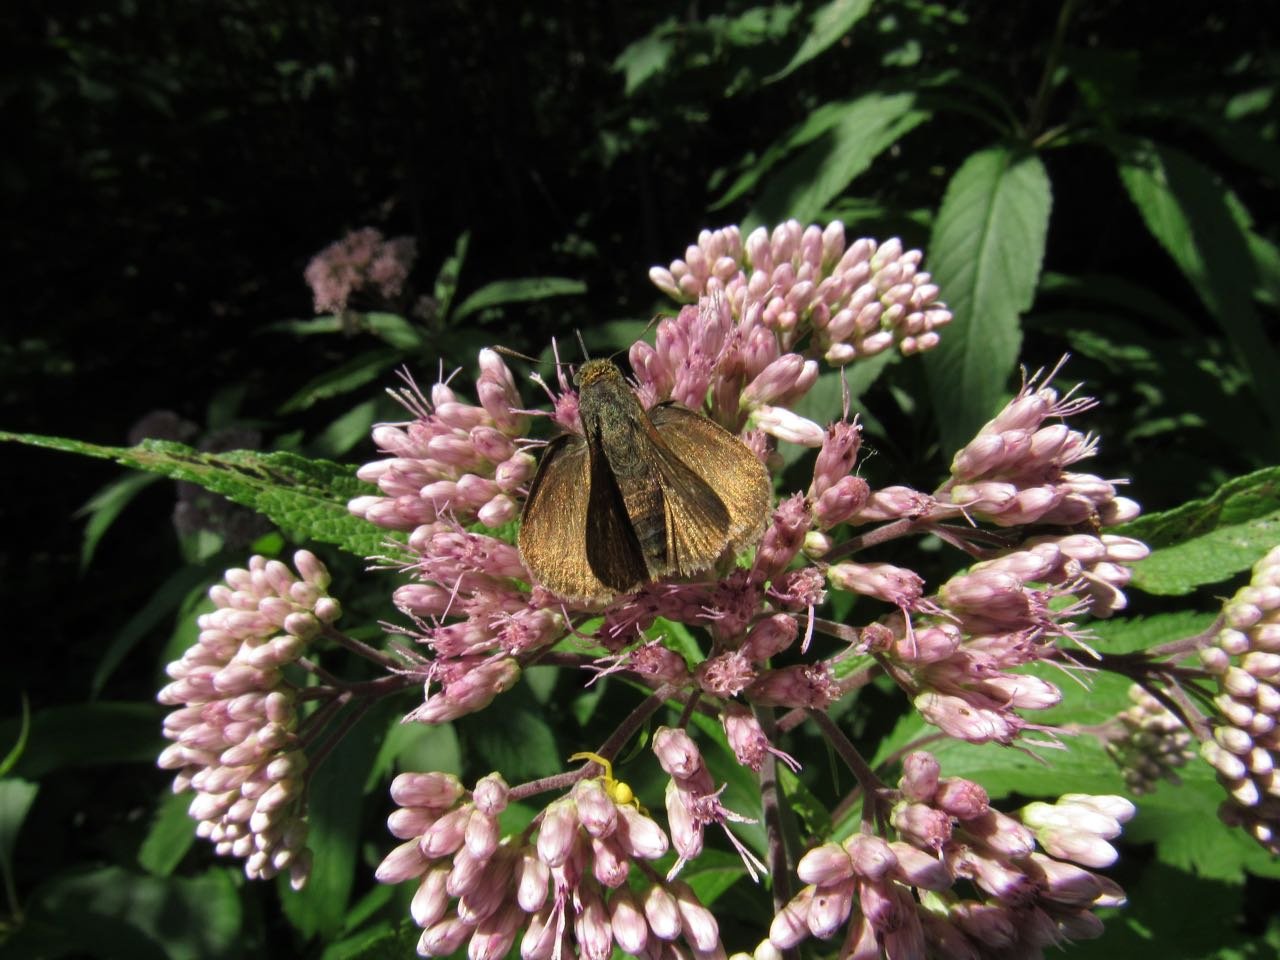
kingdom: Animalia
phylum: Arthropoda
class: Insecta
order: Lepidoptera
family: Hesperiidae
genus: Euphyes
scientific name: Euphyes vestris
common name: Dun Skipper
